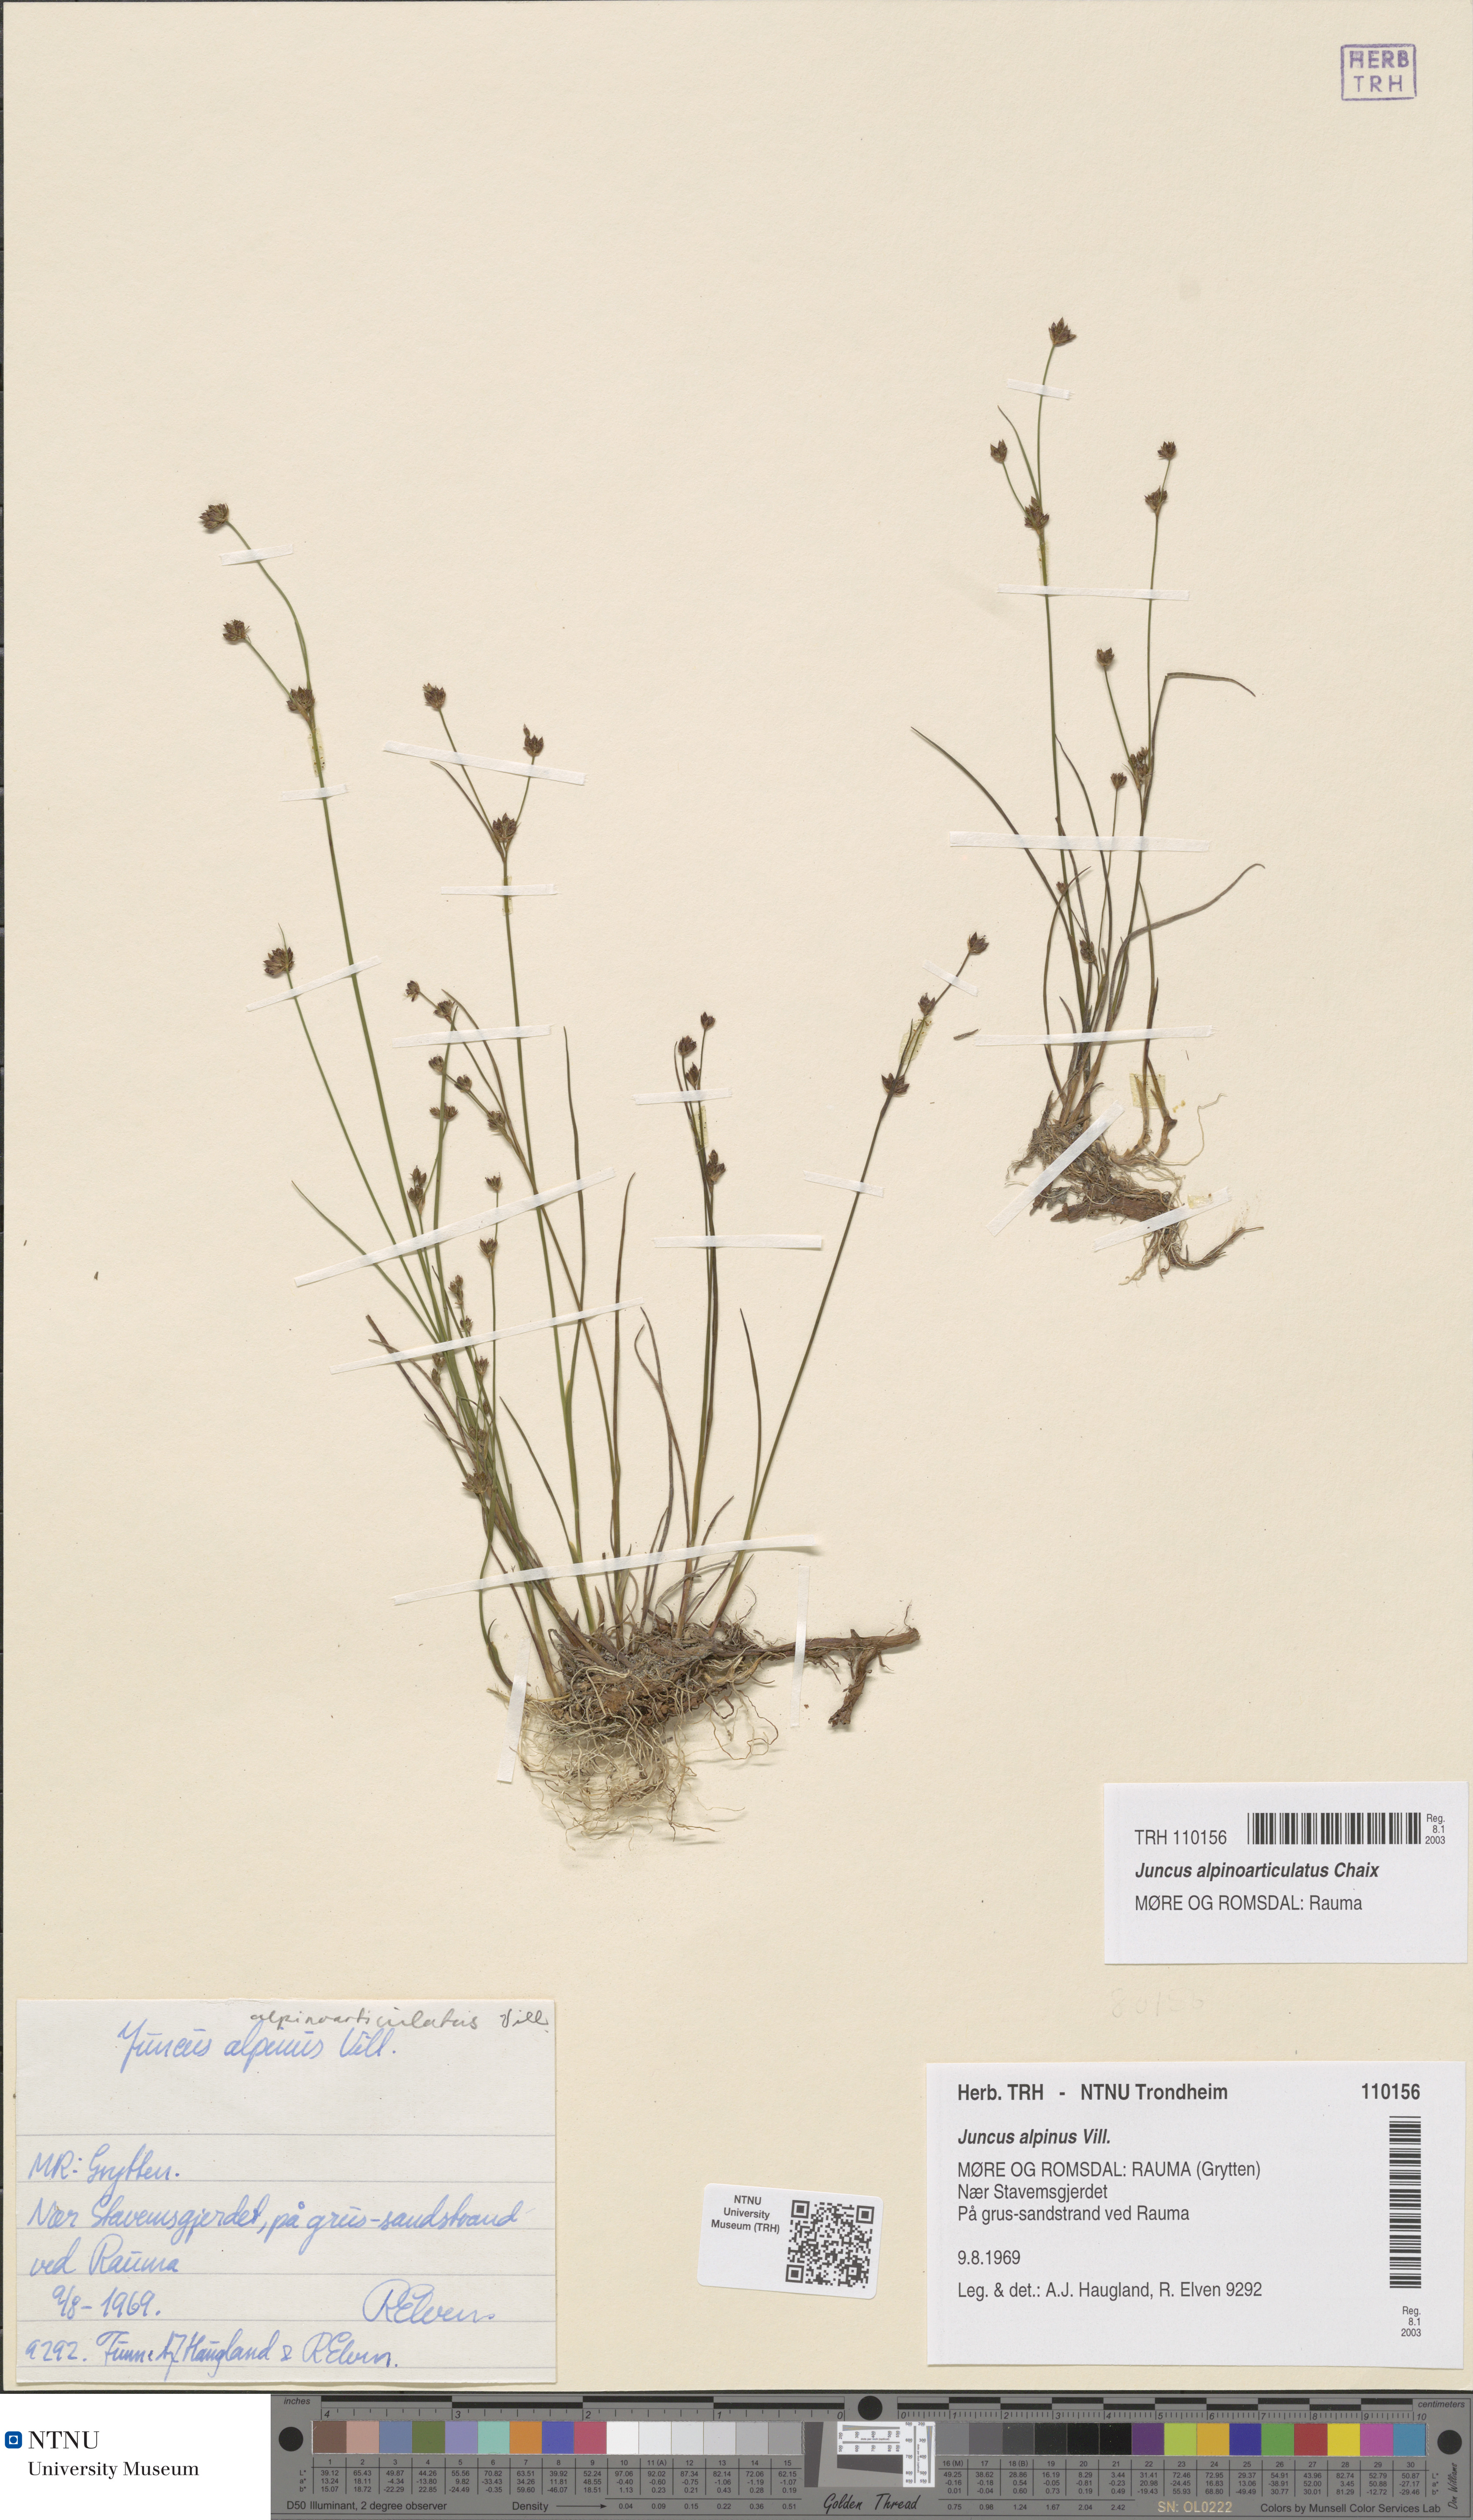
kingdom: Plantae
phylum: Tracheophyta
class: Liliopsida
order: Poales
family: Juncaceae
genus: Juncus
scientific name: Juncus alpinoarticulatus
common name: Alpine rush
